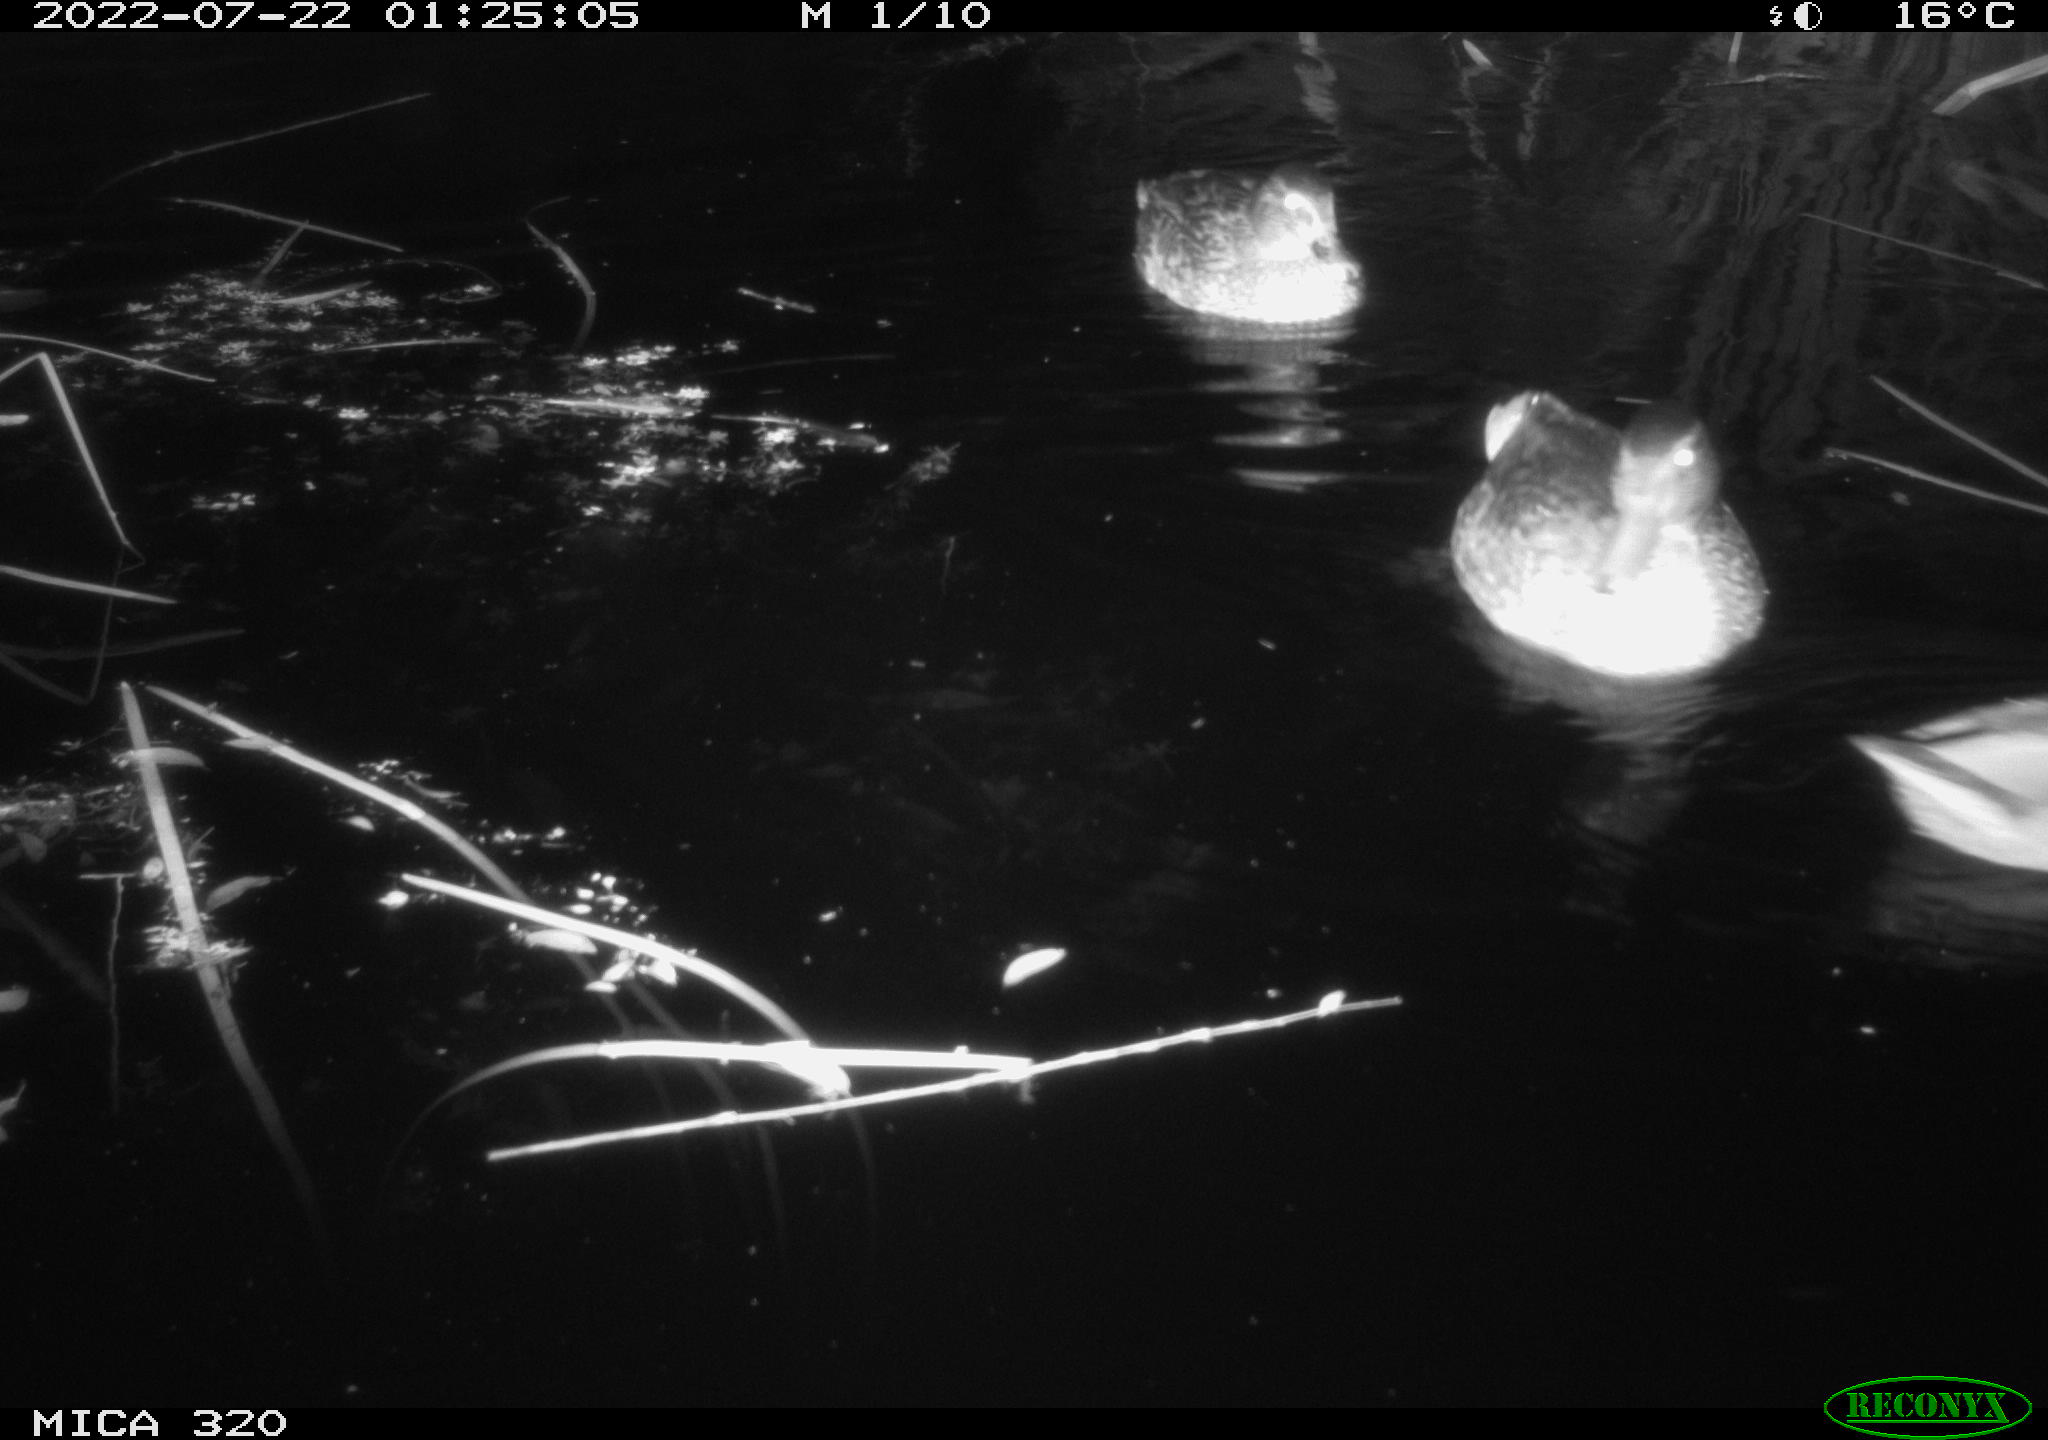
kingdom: Animalia
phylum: Chordata
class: Aves
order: Anseriformes
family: Anatidae
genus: Mareca
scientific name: Mareca strepera
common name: Gadwall
